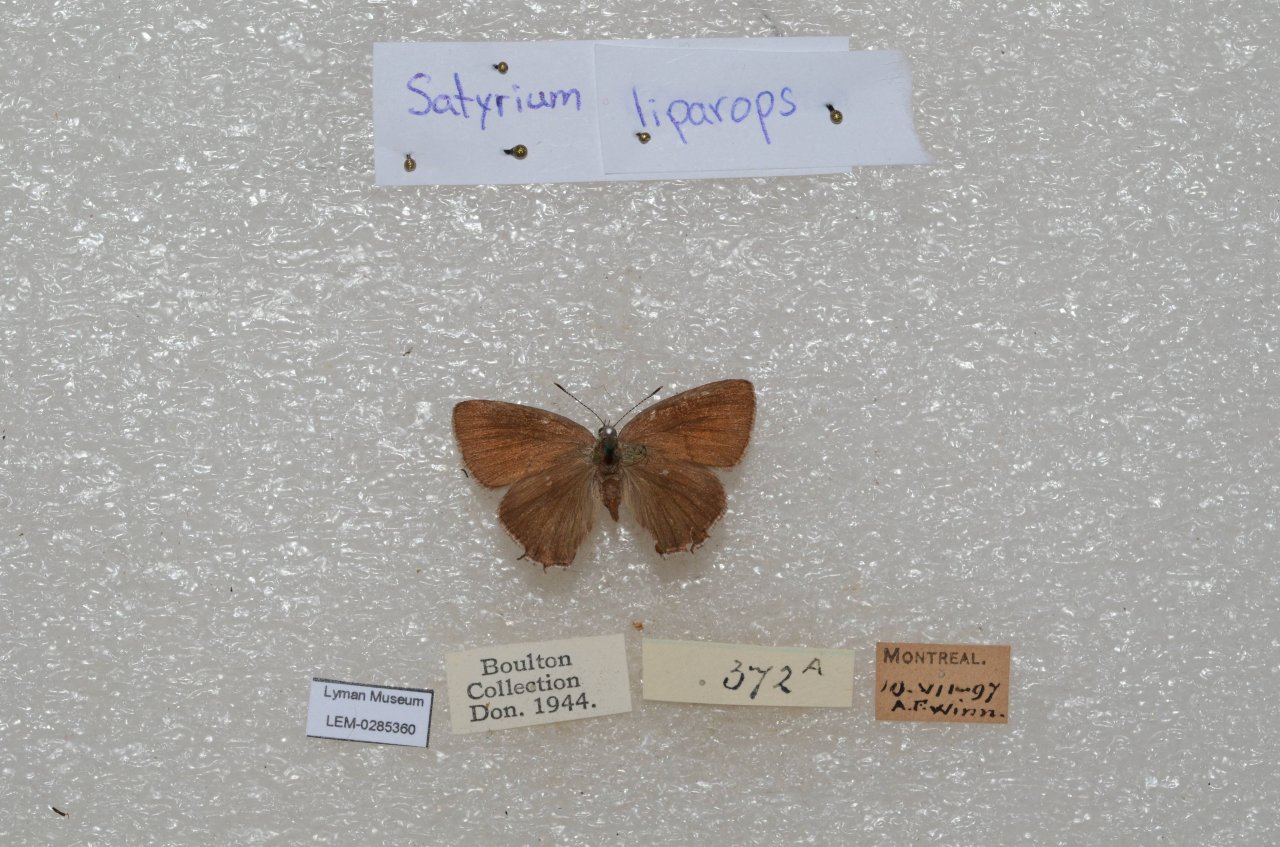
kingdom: Animalia
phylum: Arthropoda
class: Insecta
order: Lepidoptera
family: Lycaenidae
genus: Satyrium
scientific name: Satyrium liparops
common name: Striped Hairstreak
